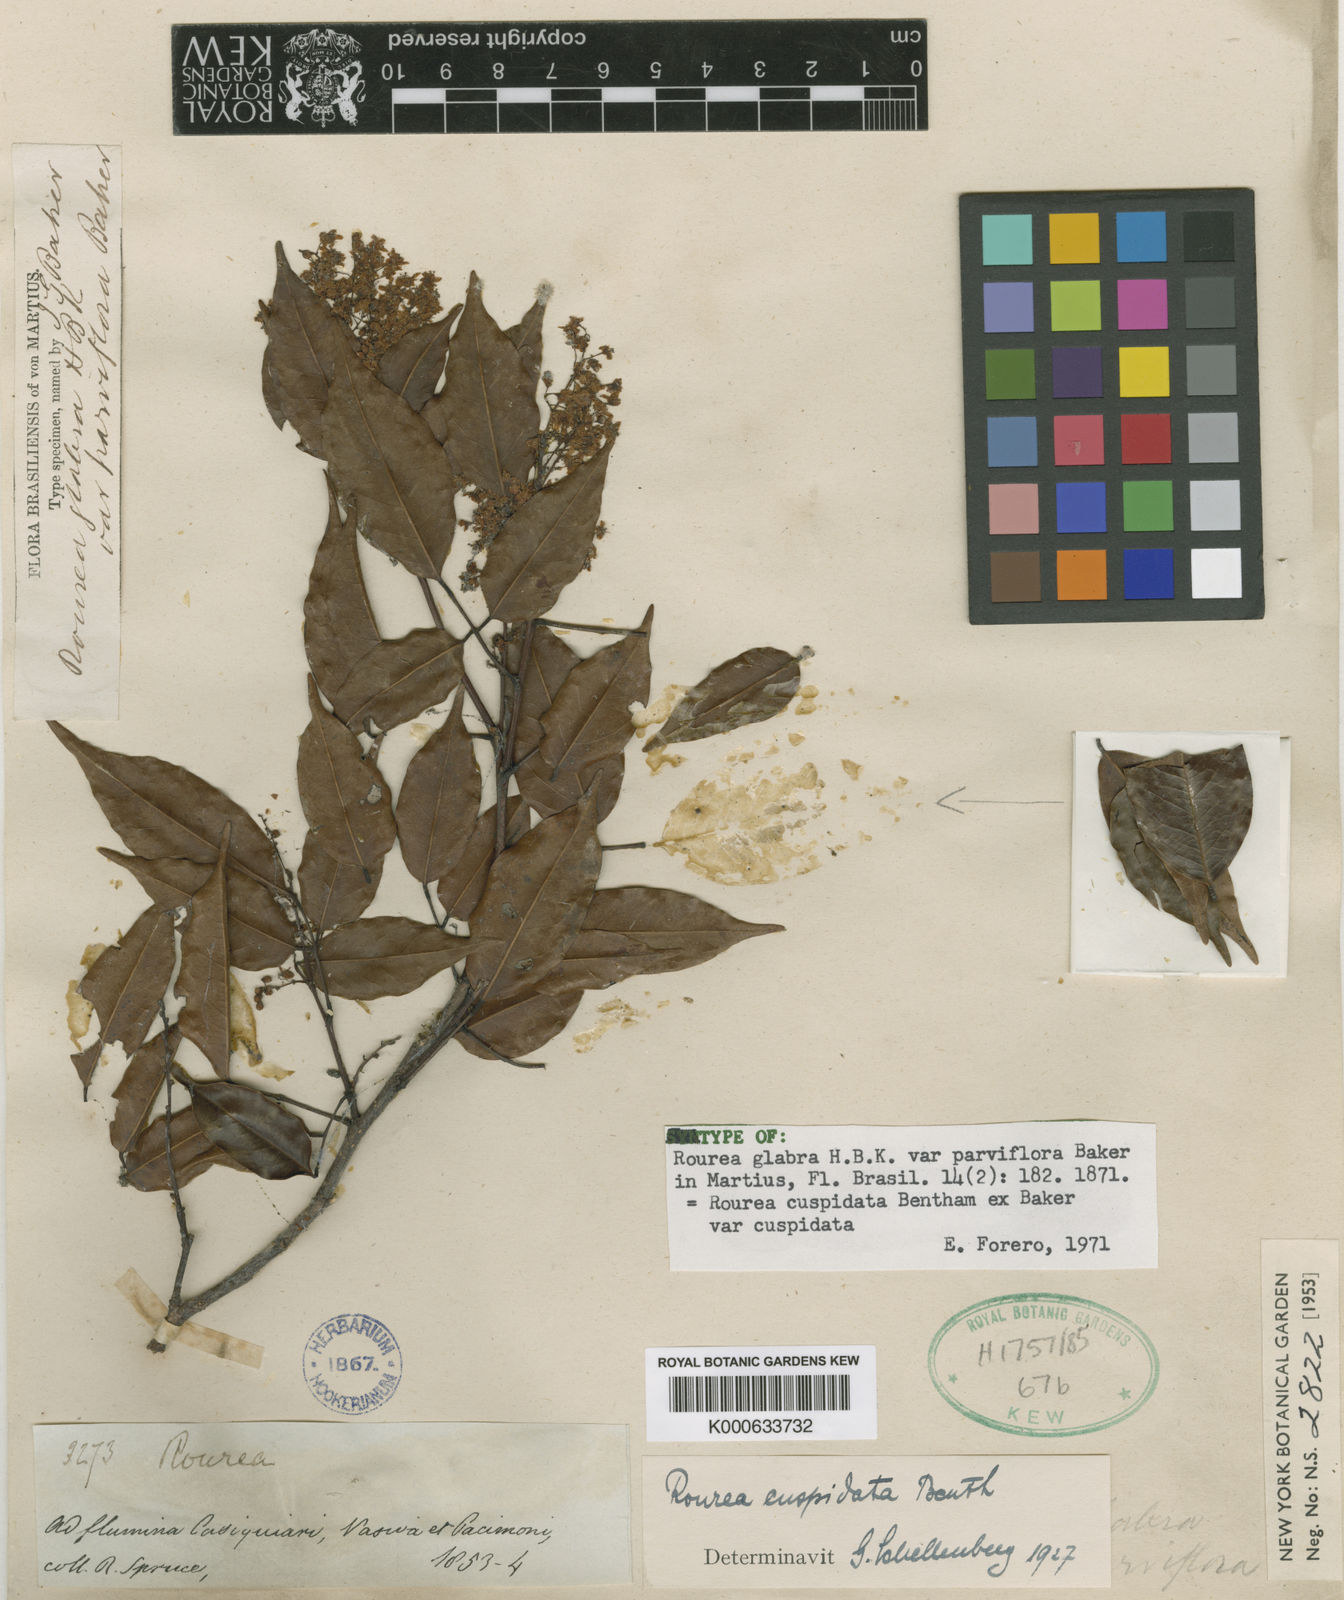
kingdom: Plantae
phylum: Tracheophyta
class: Magnoliopsida
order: Oxalidales
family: Connaraceae
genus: Rourea
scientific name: Rourea cuspidata
